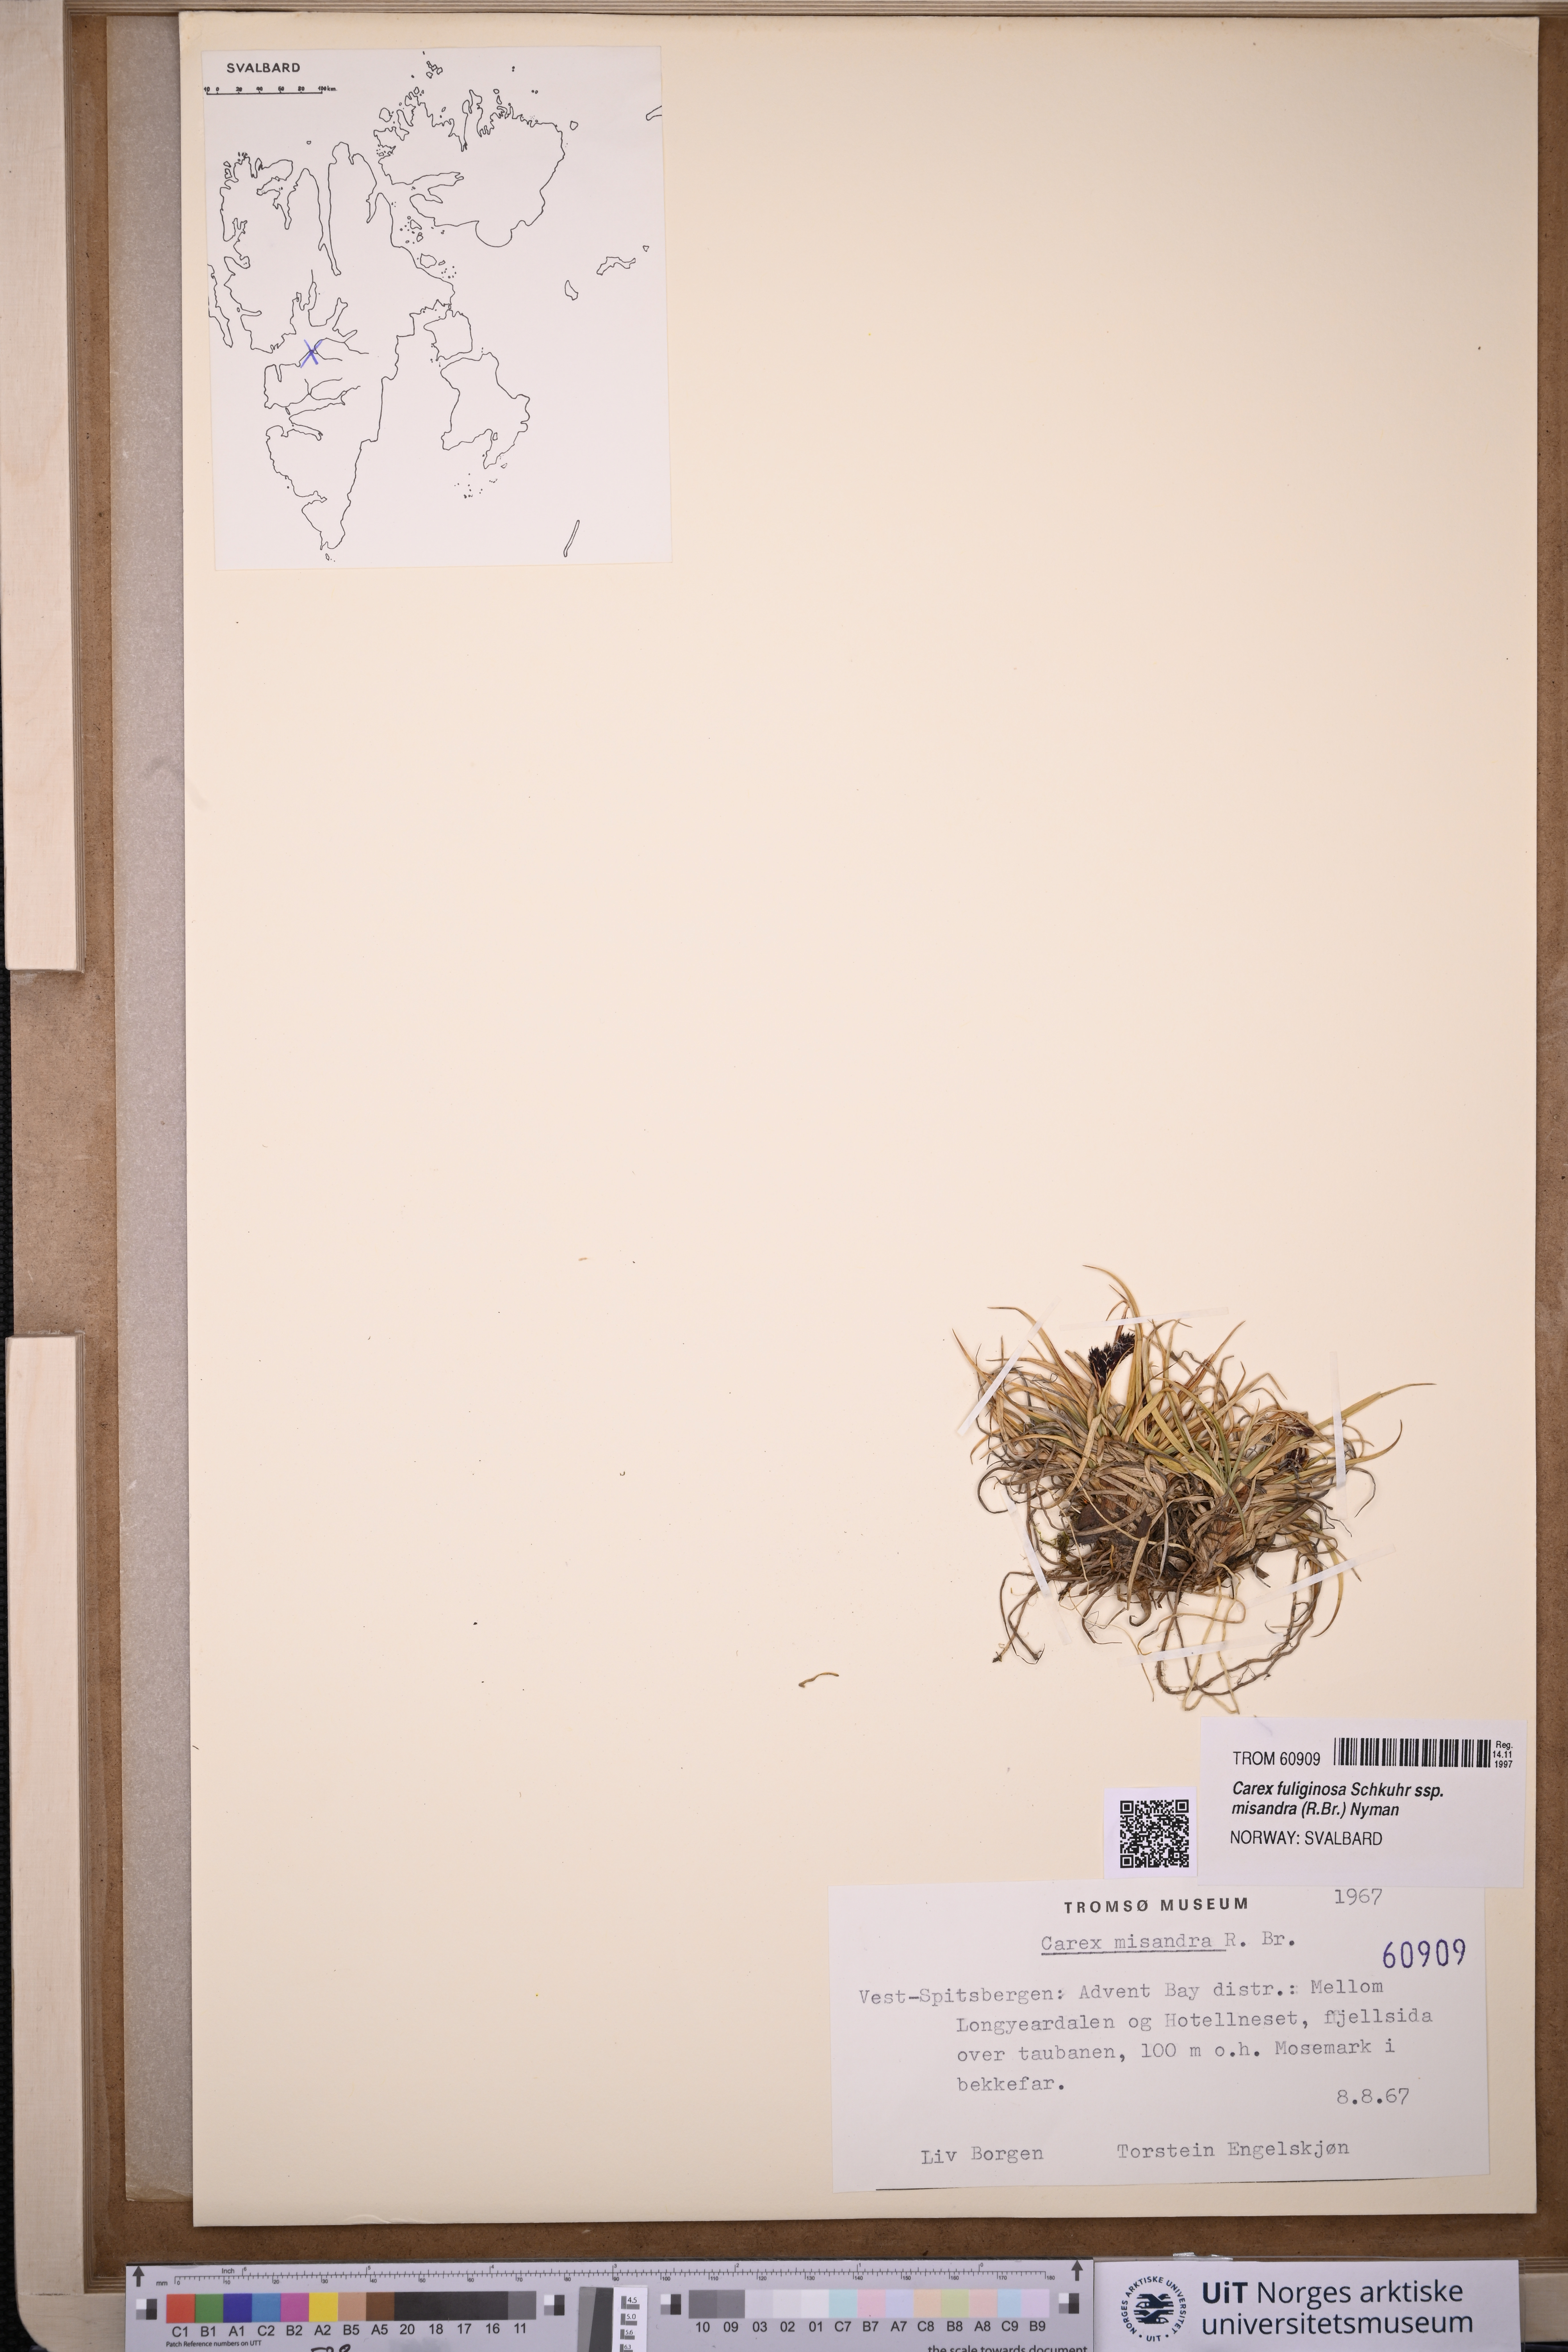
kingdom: Plantae
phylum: Tracheophyta
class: Liliopsida
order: Poales
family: Cyperaceae
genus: Carex
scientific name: Carex fuliginosa
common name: Few-flowered sedge
